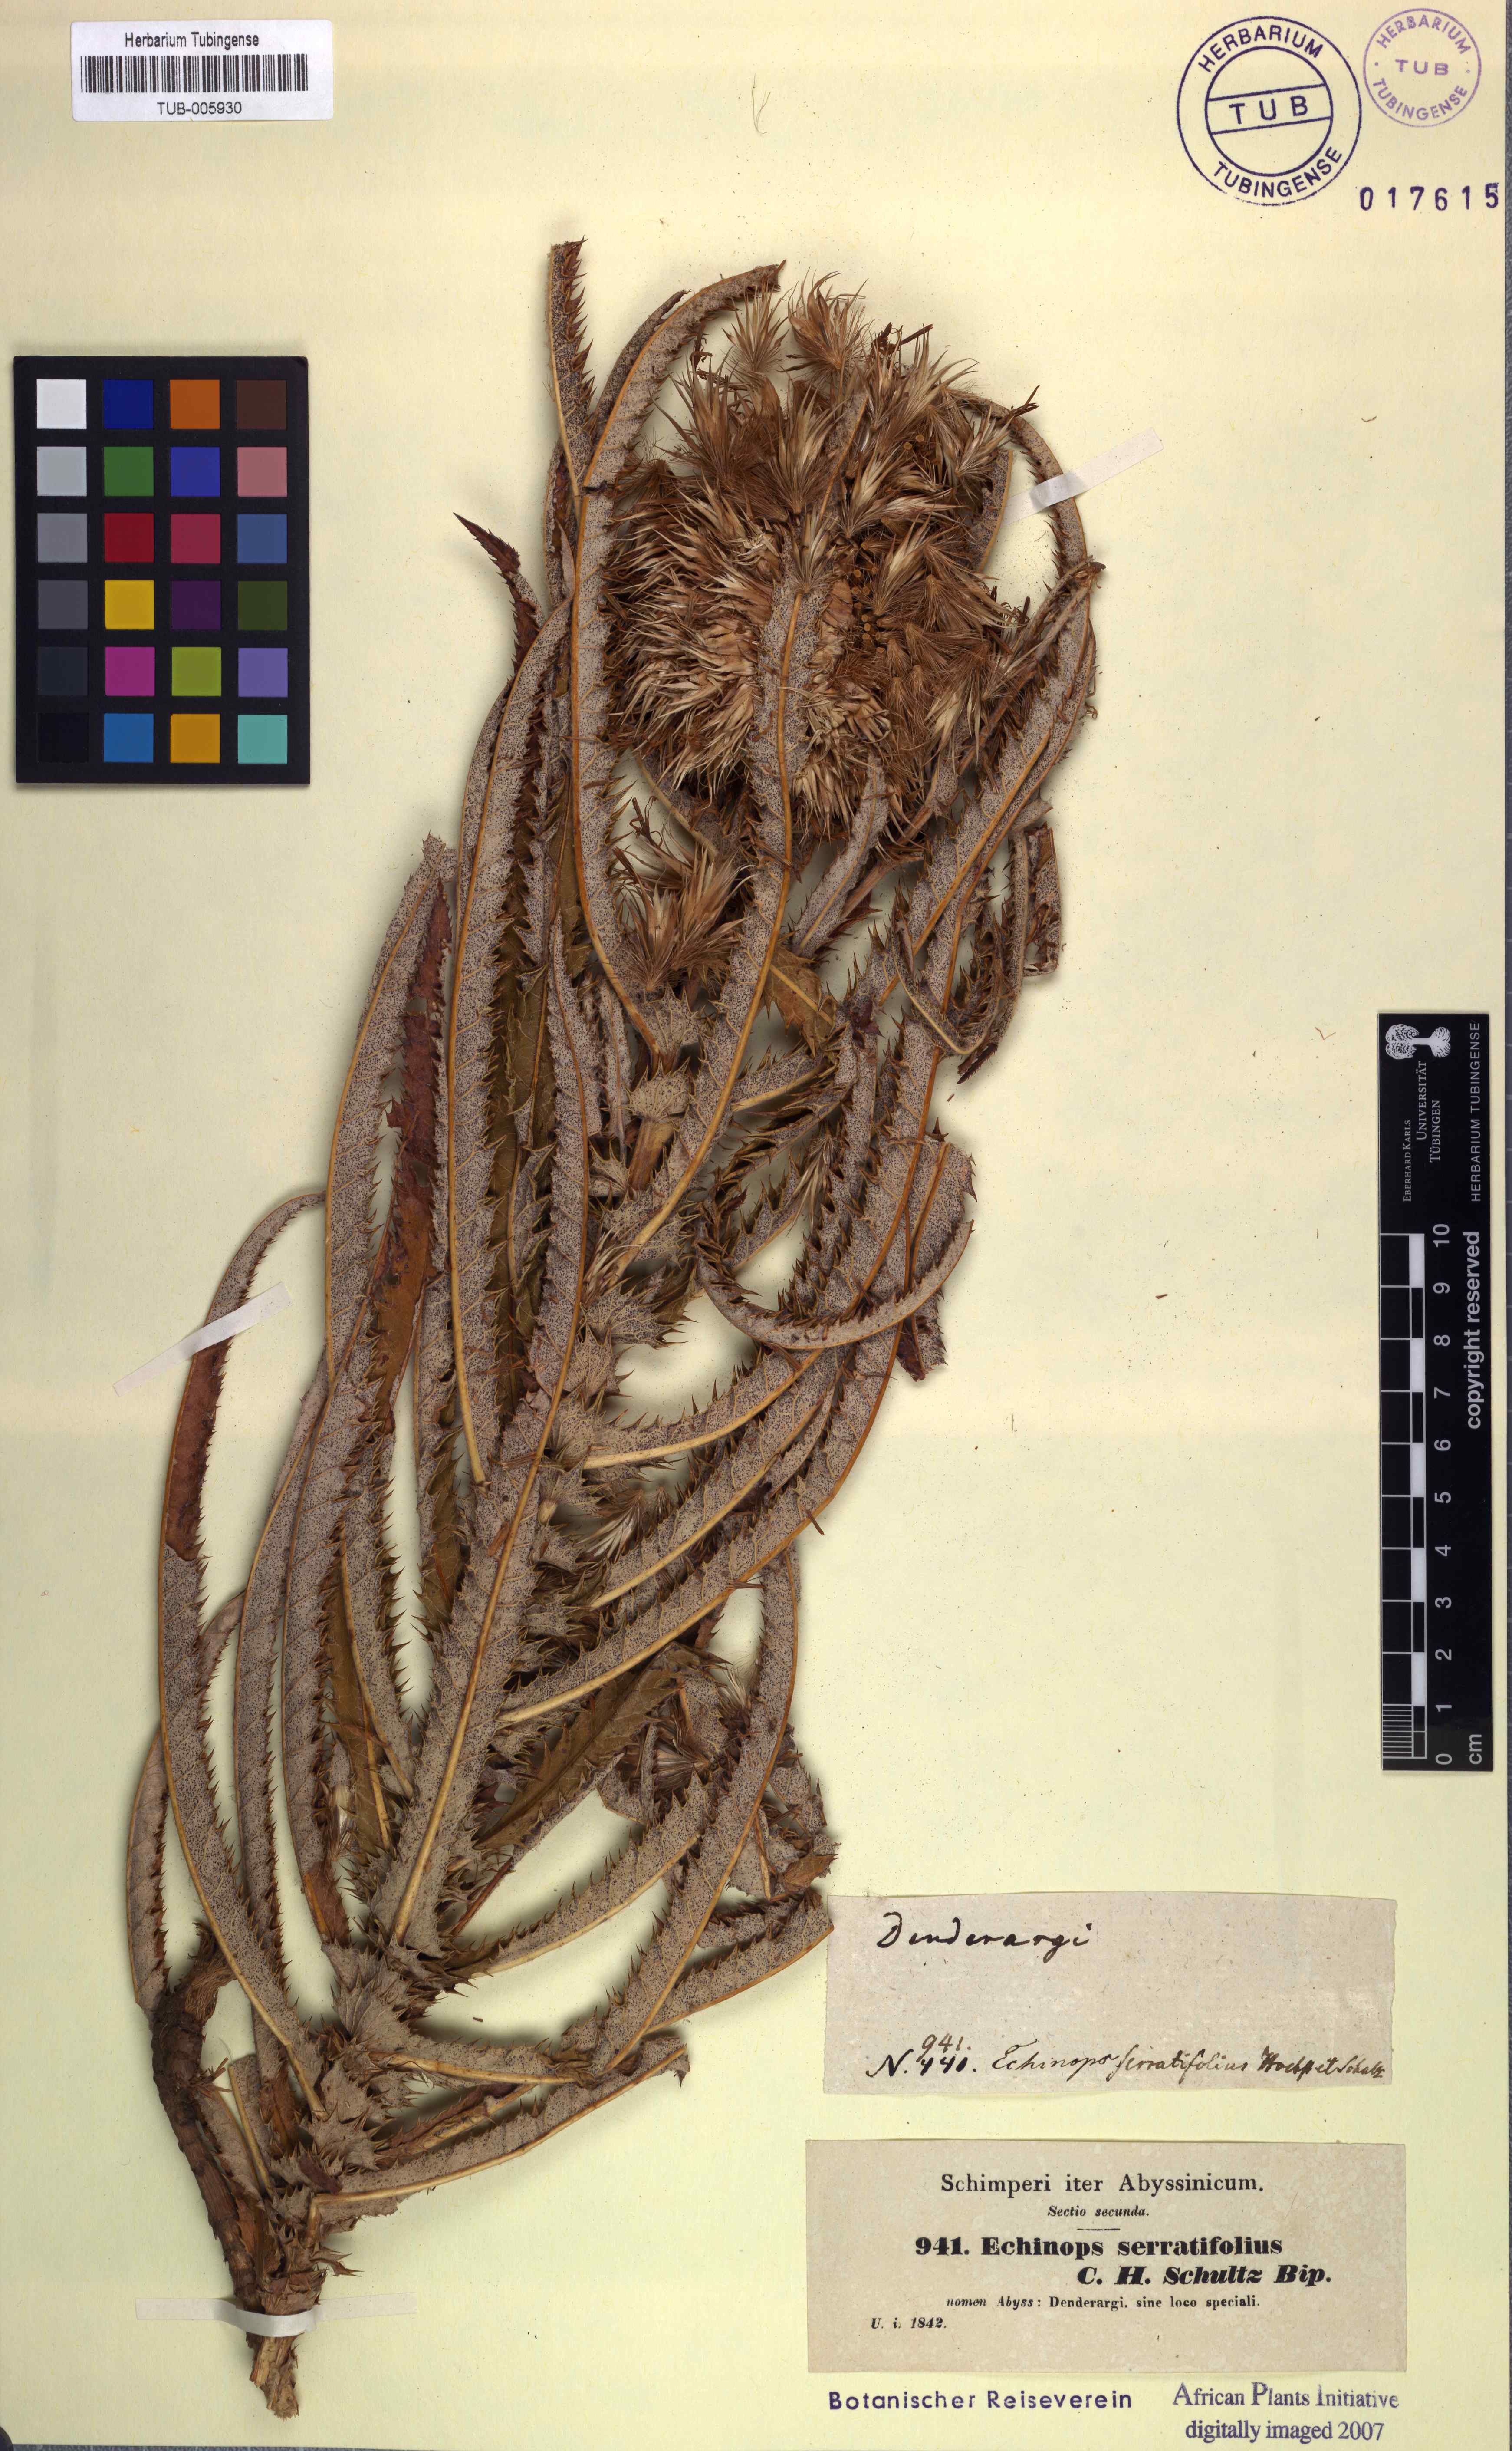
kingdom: Plantae
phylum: Tracheophyta
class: Magnoliopsida
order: Asterales
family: Asteraceae
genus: Echinops
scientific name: Echinops longifolius
